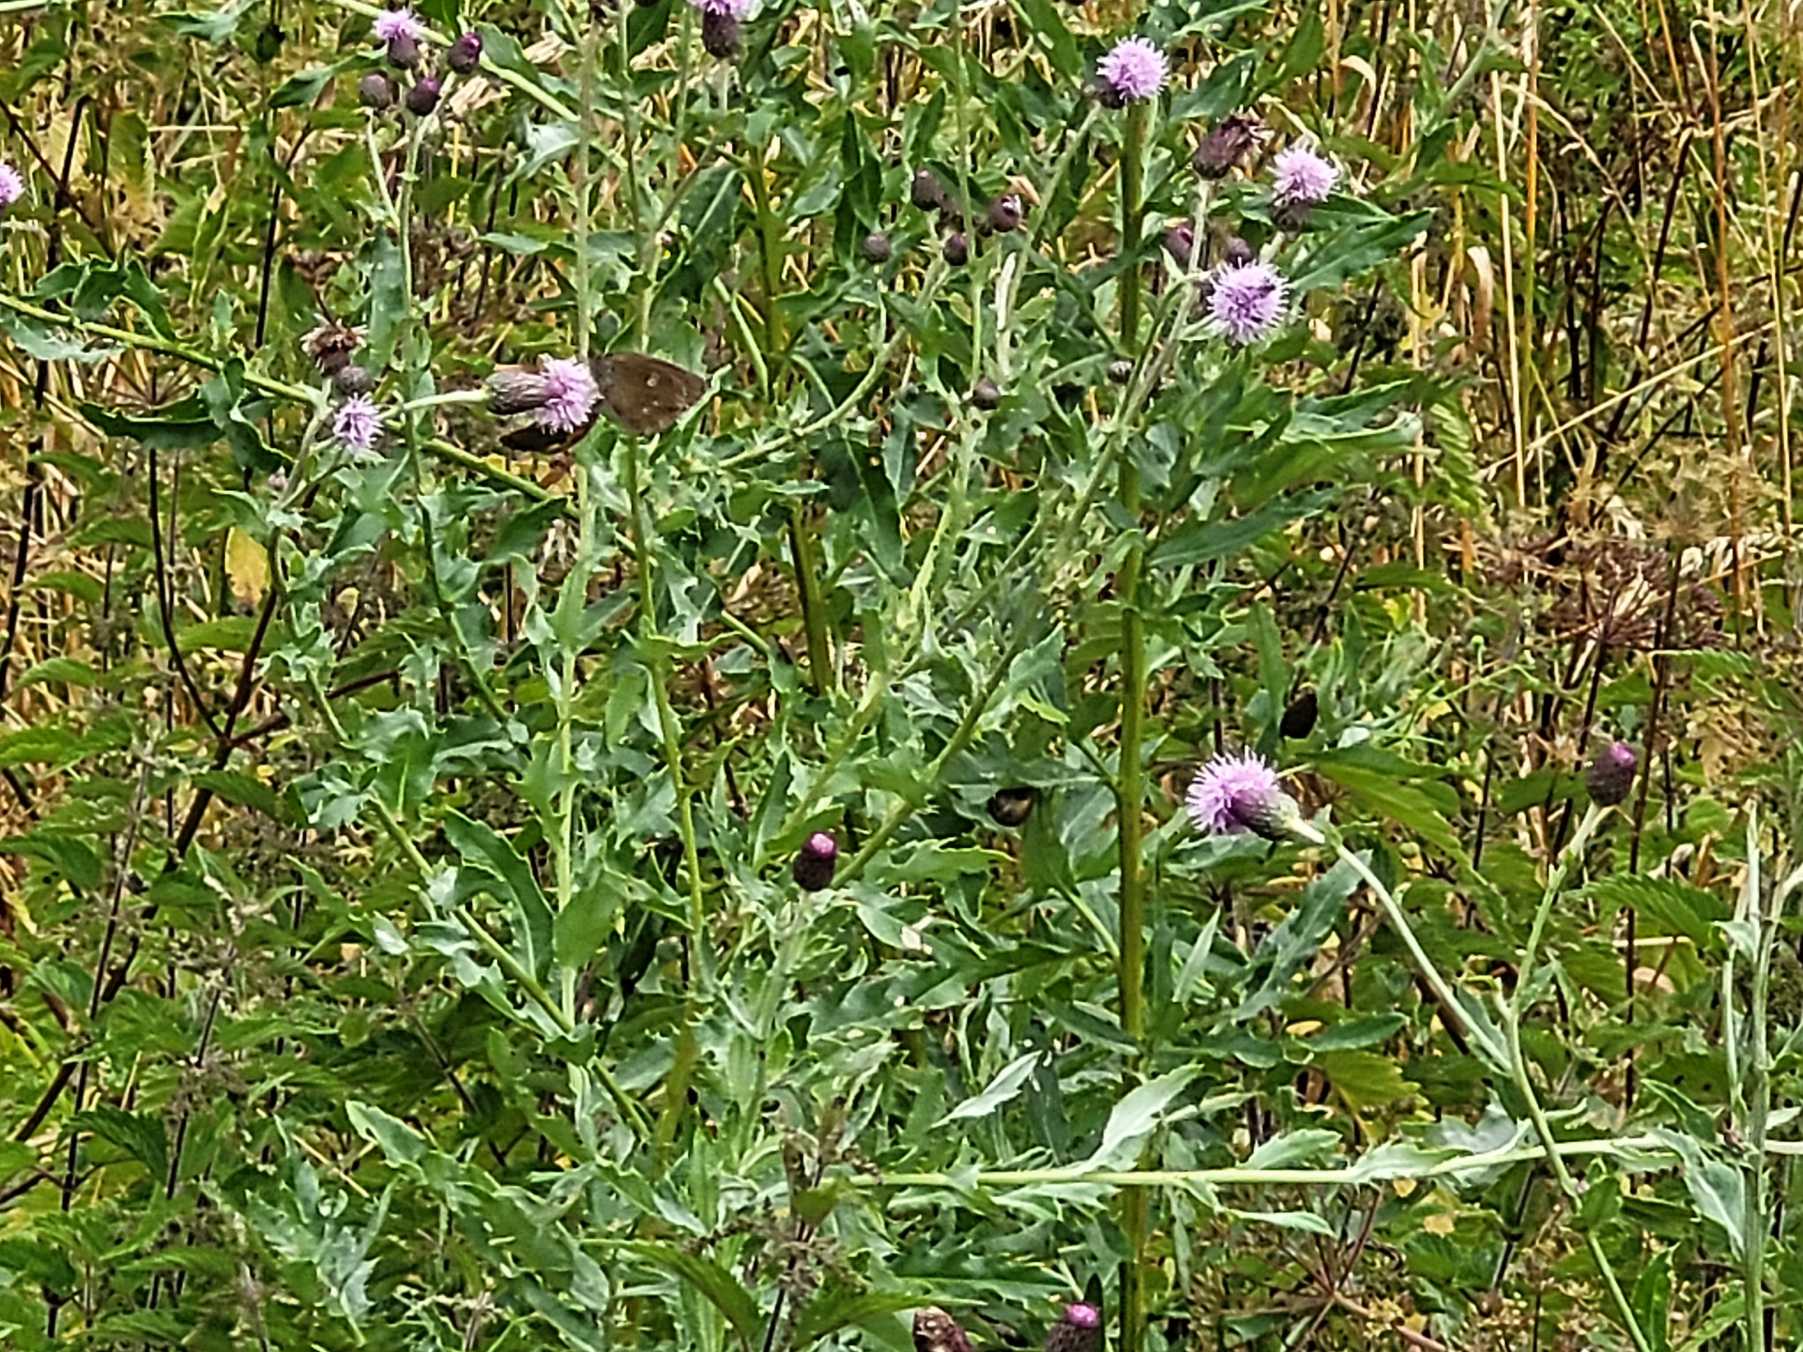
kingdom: Animalia
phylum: Arthropoda
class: Insecta
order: Lepidoptera
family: Nymphalidae
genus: Aphantopus
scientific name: Aphantopus hyperantus
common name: Engrandøje
